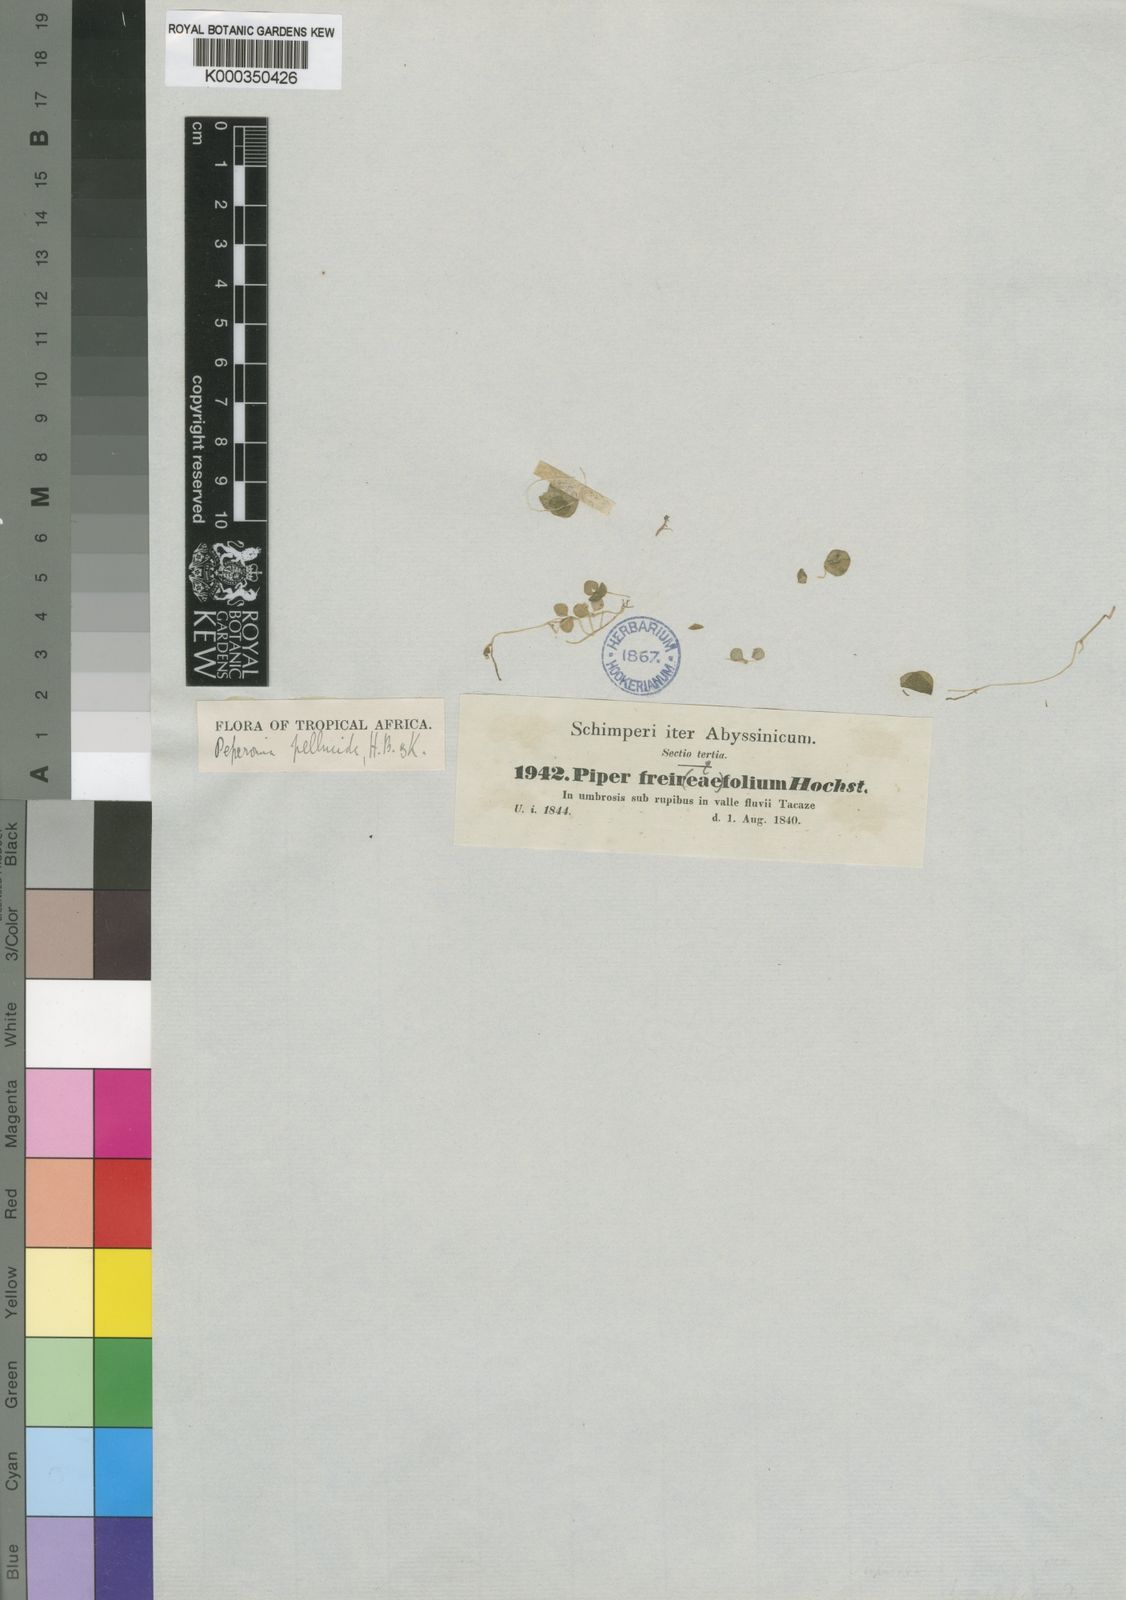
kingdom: Plantae
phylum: Tracheophyta
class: Magnoliopsida
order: Piperales
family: Piperaceae
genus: Peperomia
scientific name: Peperomia
